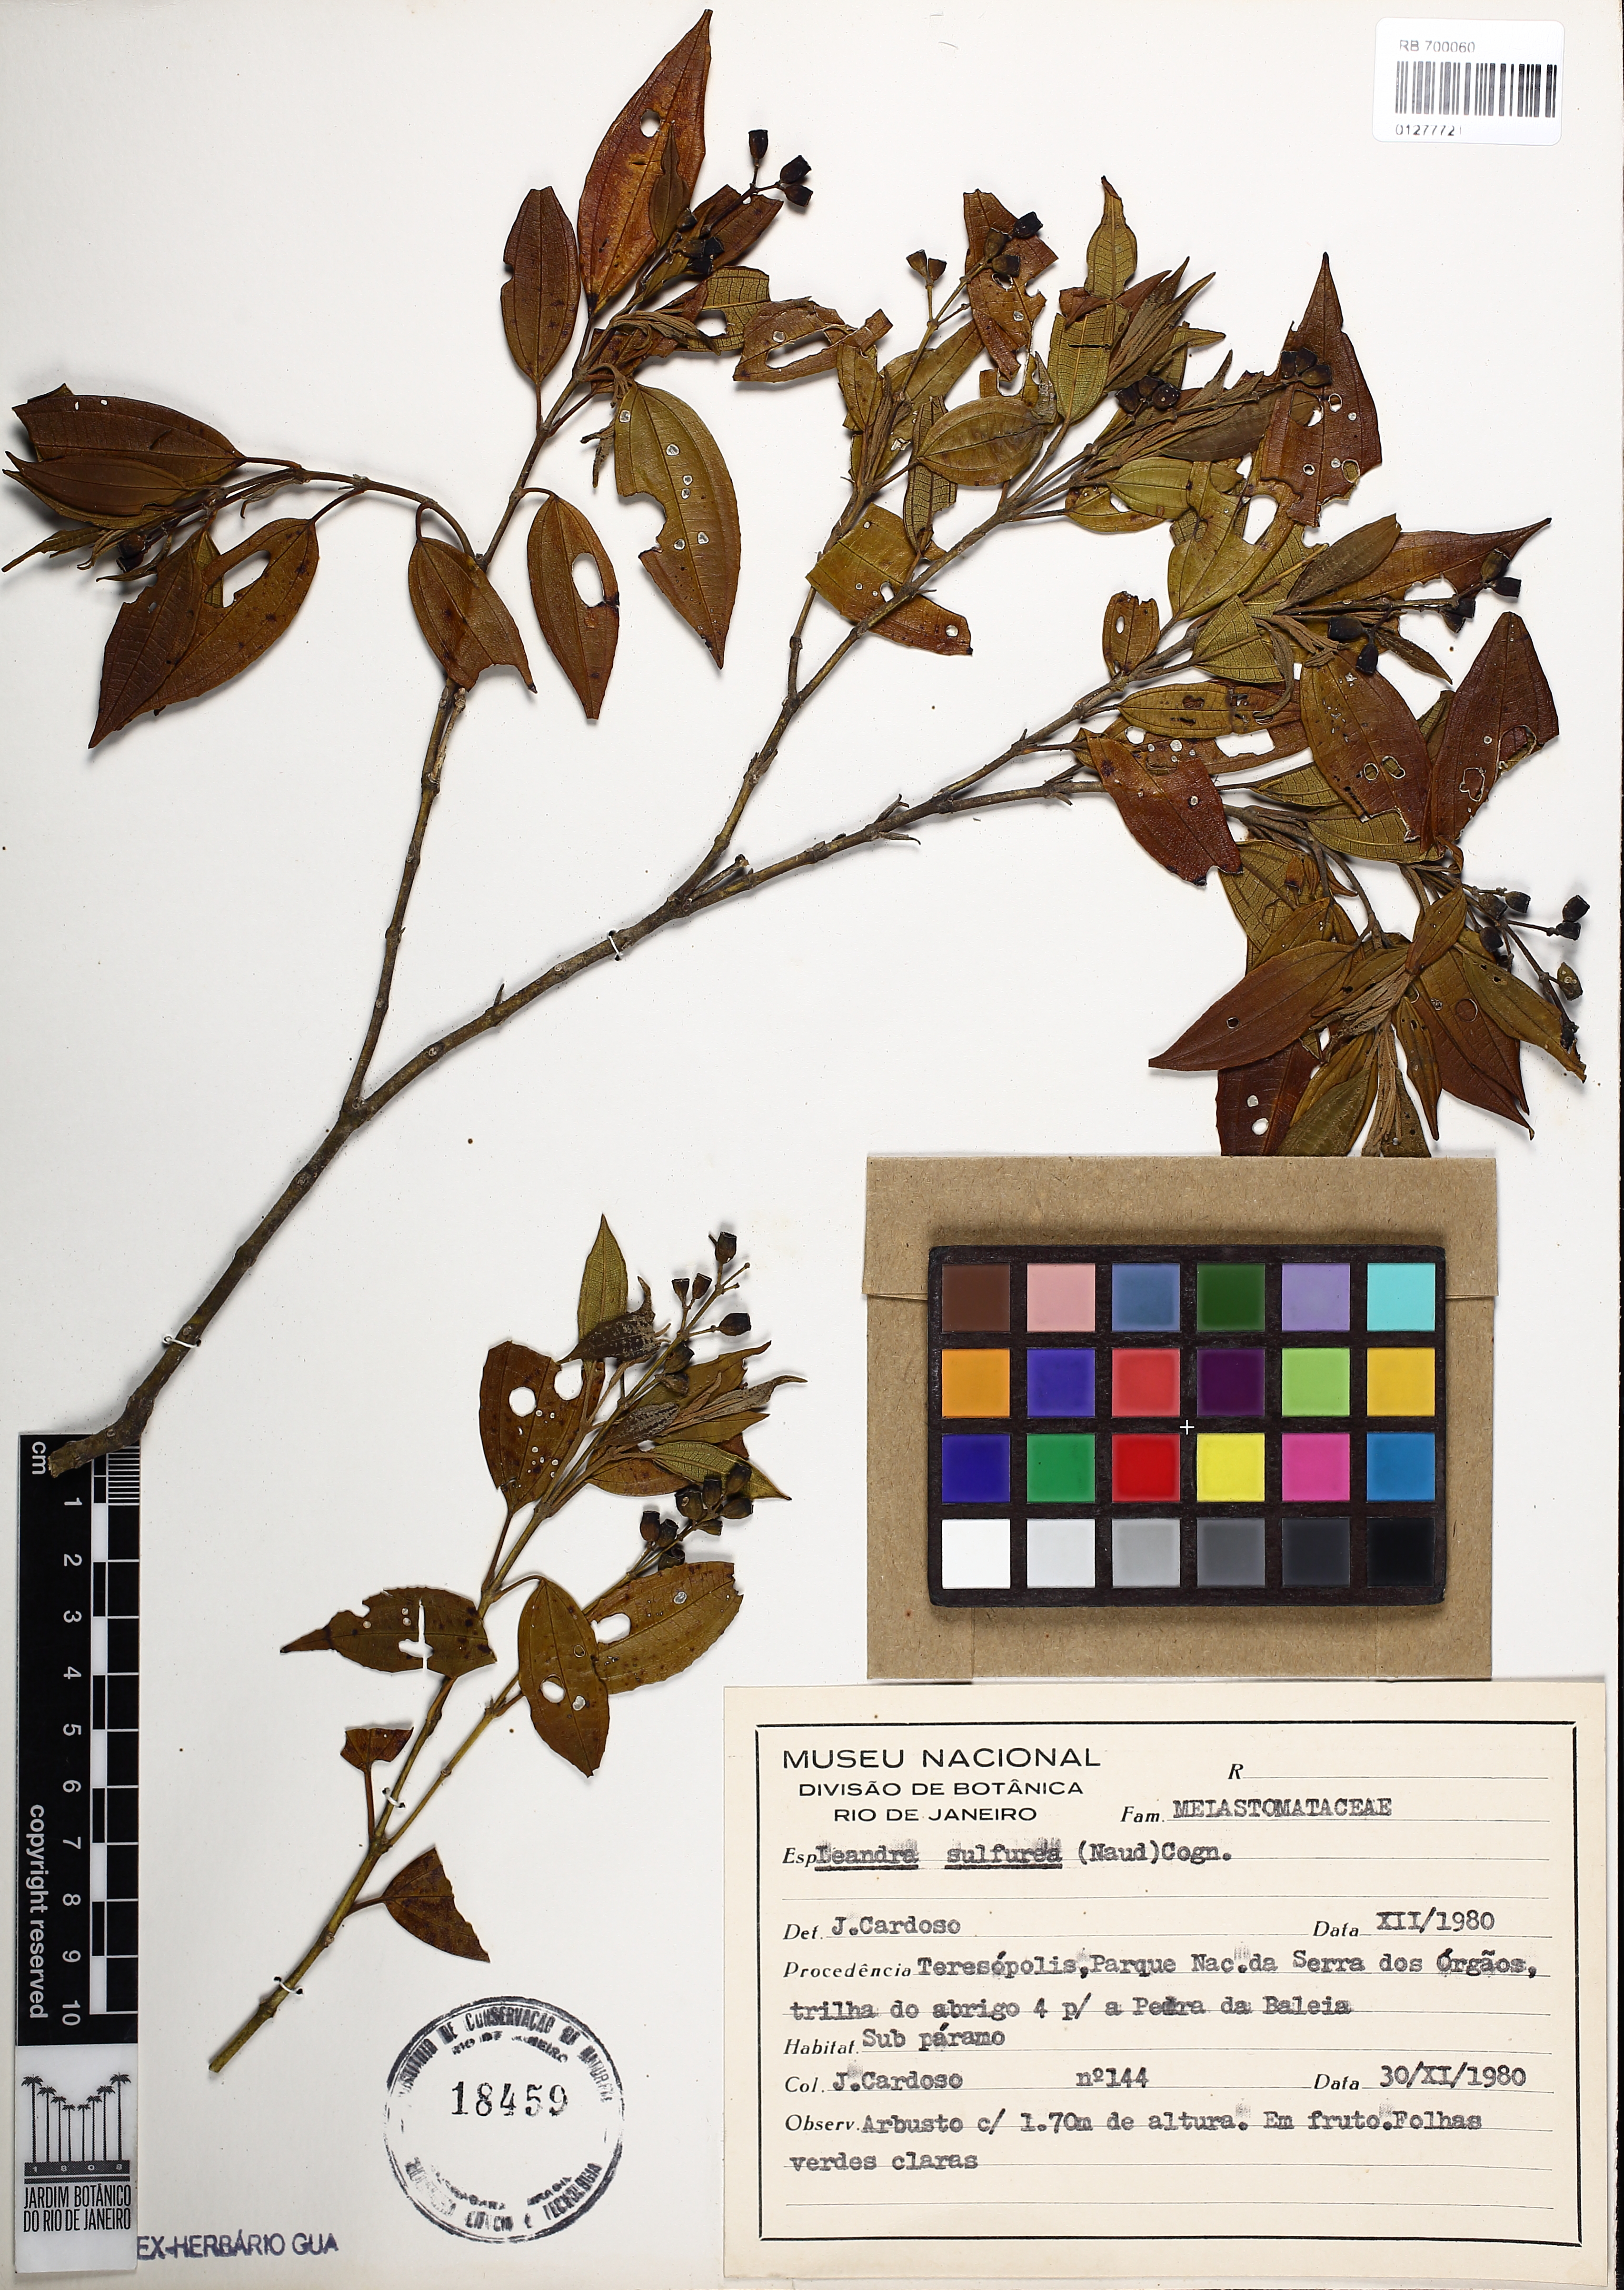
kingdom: Plantae
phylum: Tracheophyta
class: Magnoliopsida
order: Myrtales
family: Melastomataceae
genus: Miconia
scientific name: Miconia sulfurea
